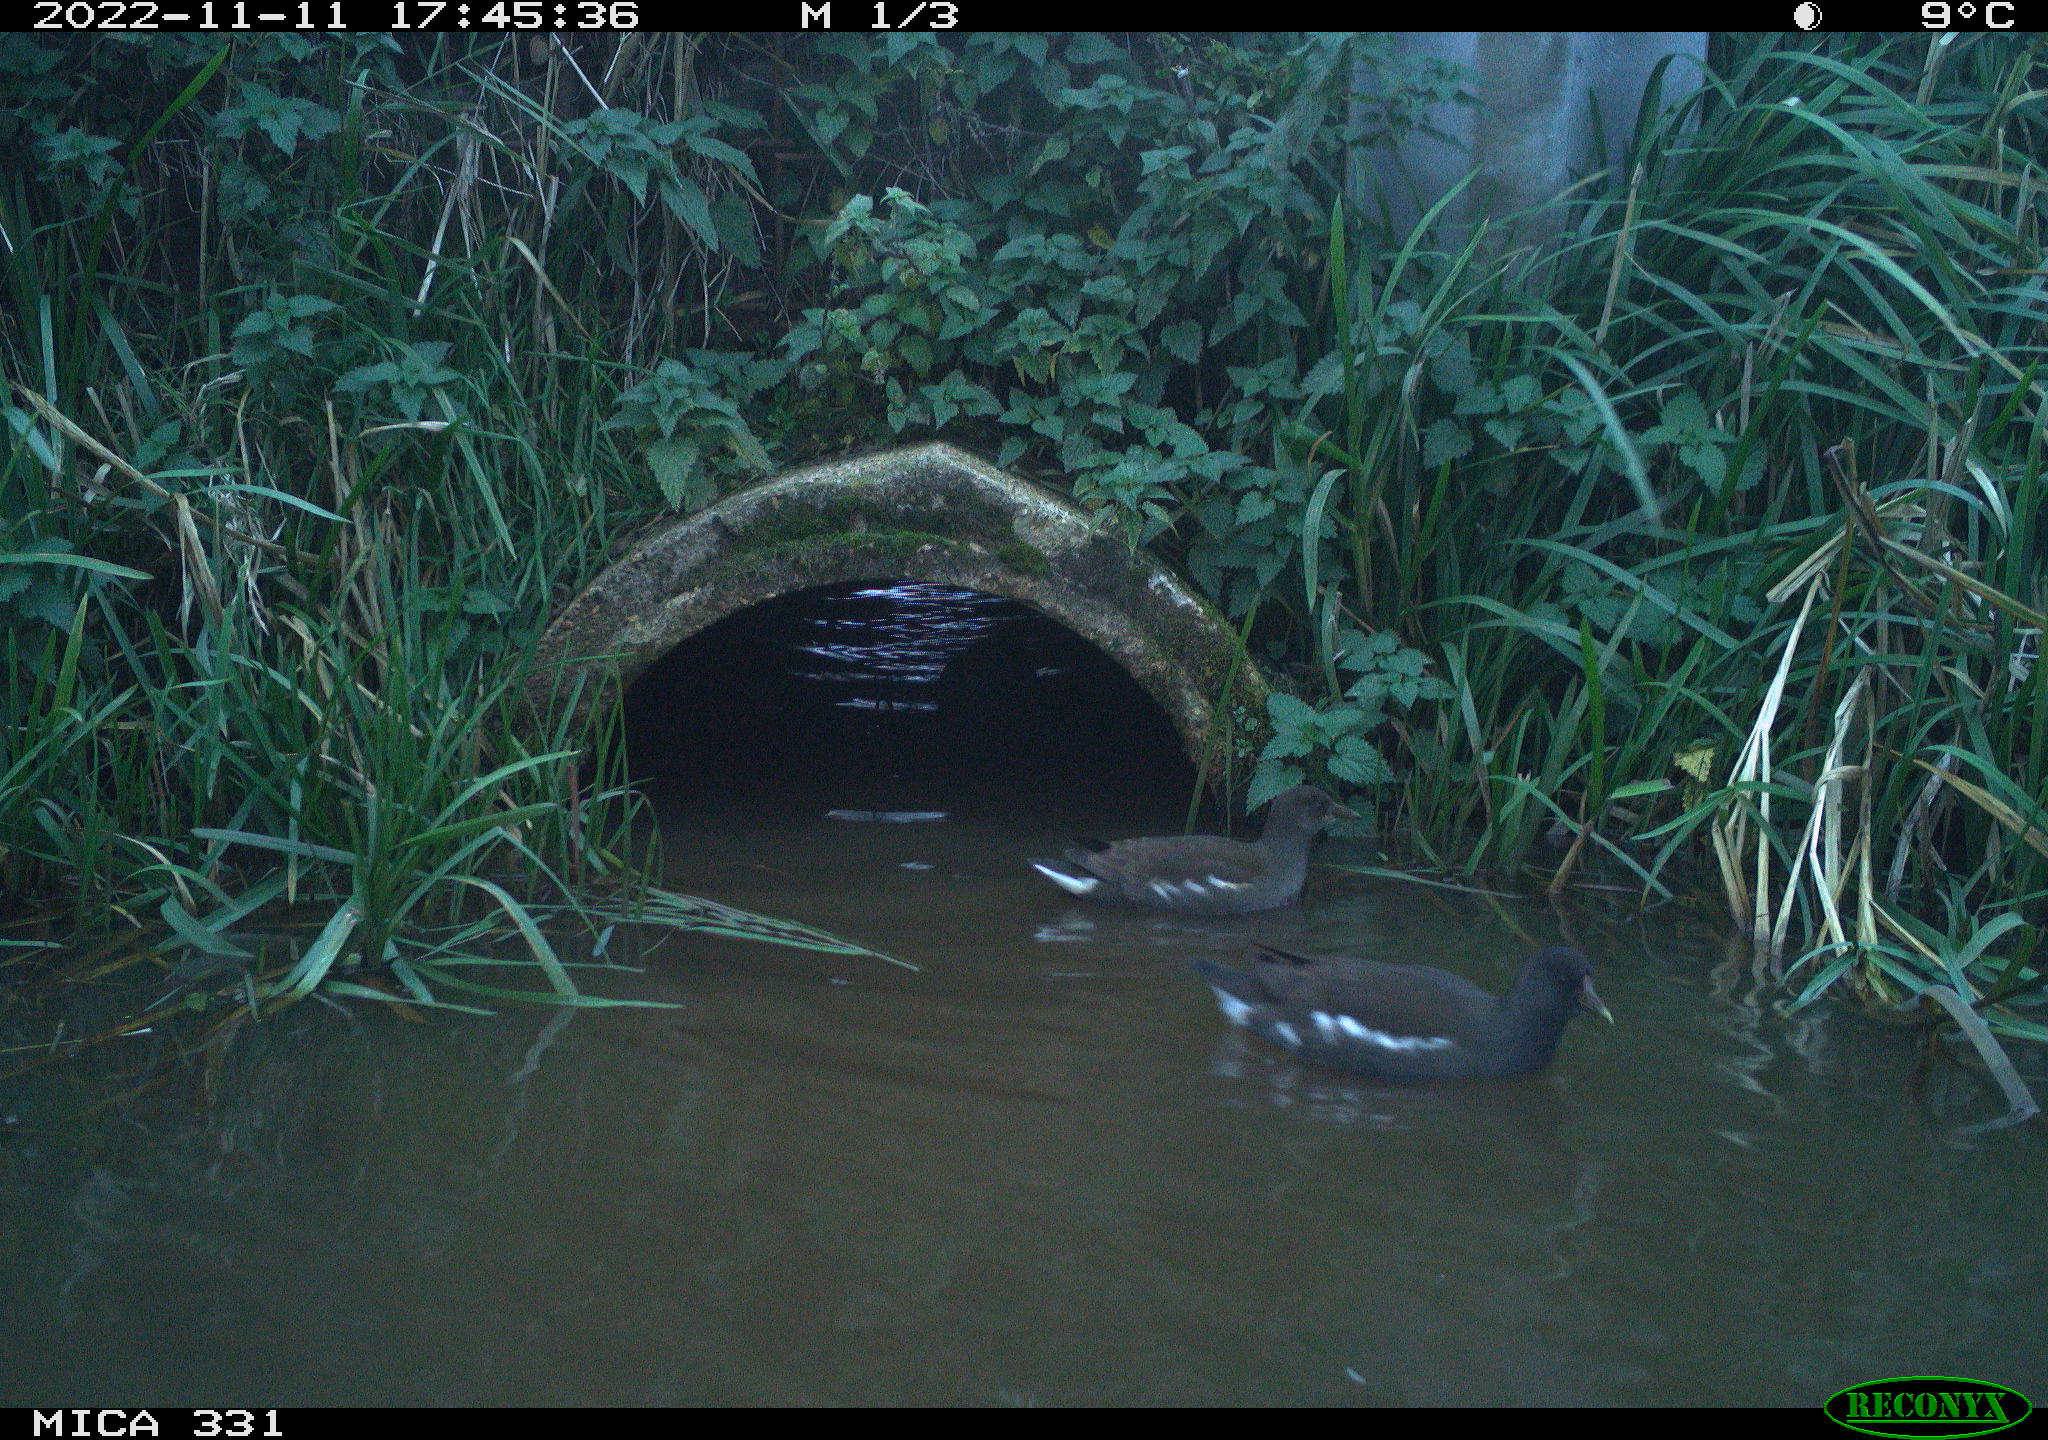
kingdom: Animalia
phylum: Chordata
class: Aves
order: Gruiformes
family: Rallidae
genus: Gallinula
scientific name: Gallinula chloropus
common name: Common moorhen
